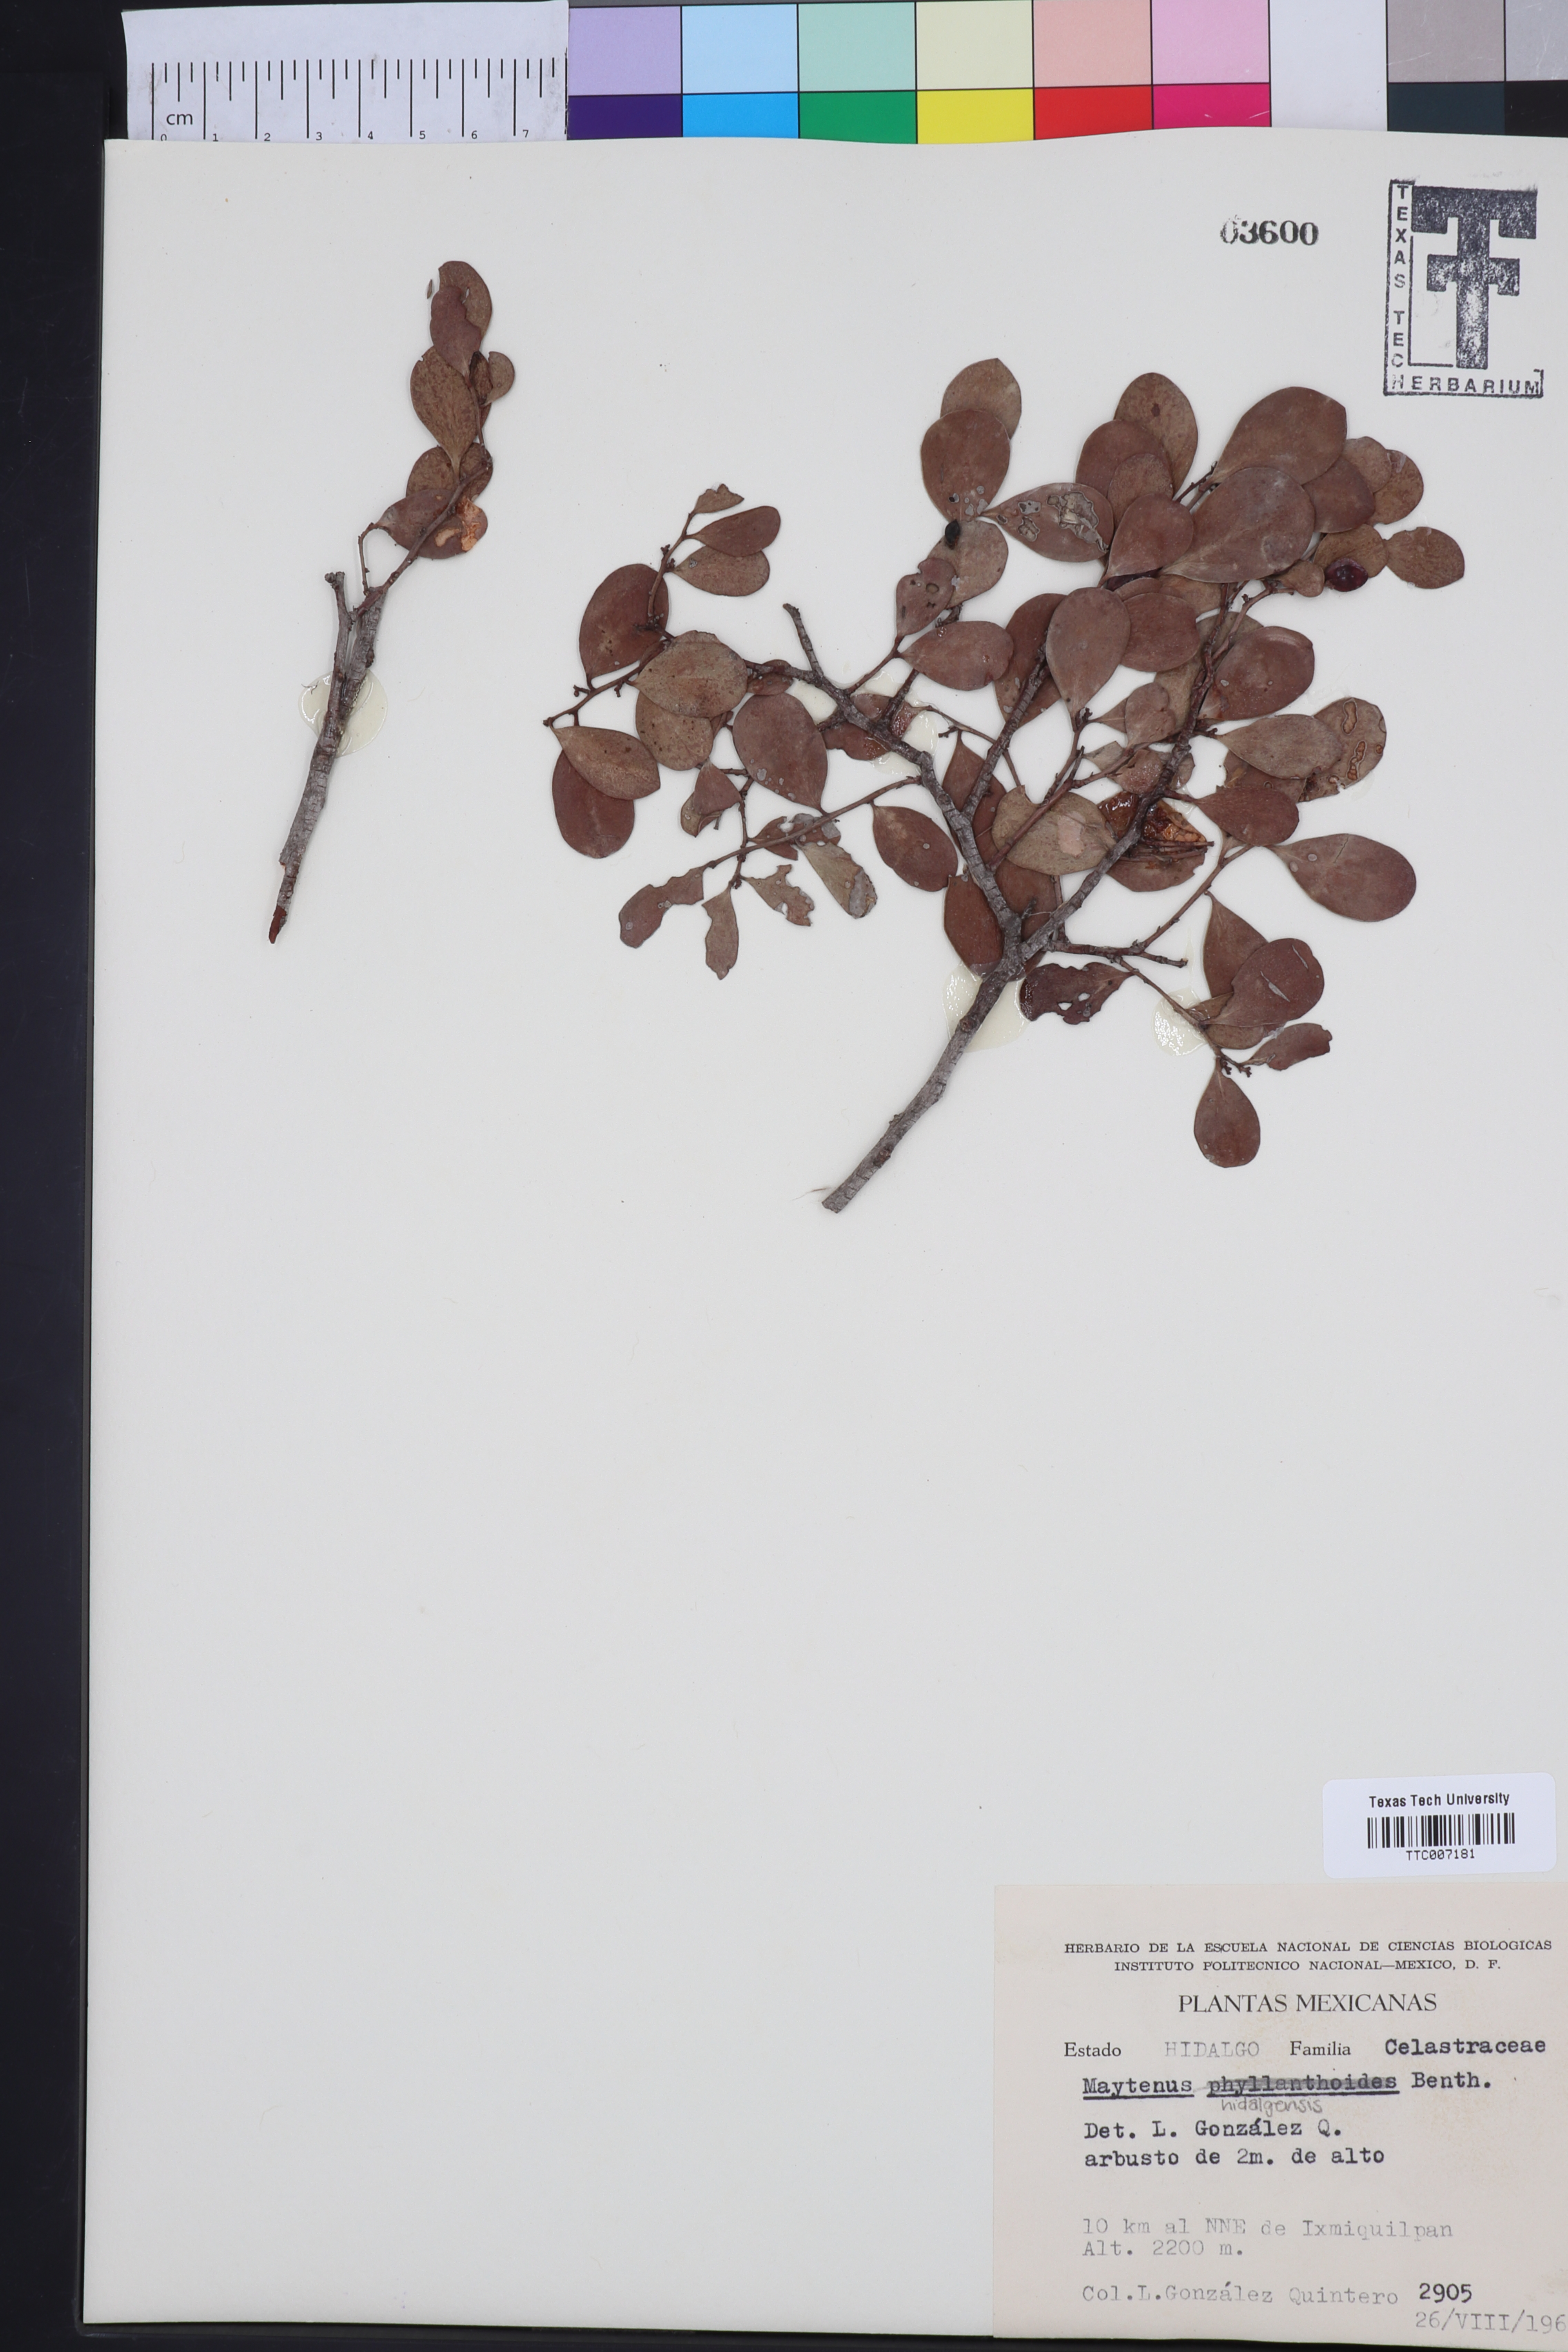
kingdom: Plantae
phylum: Tracheophyta
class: Magnoliopsida
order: Celastrales
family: Celastraceae
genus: Tricerma
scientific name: Tricerma phyllanthoides
